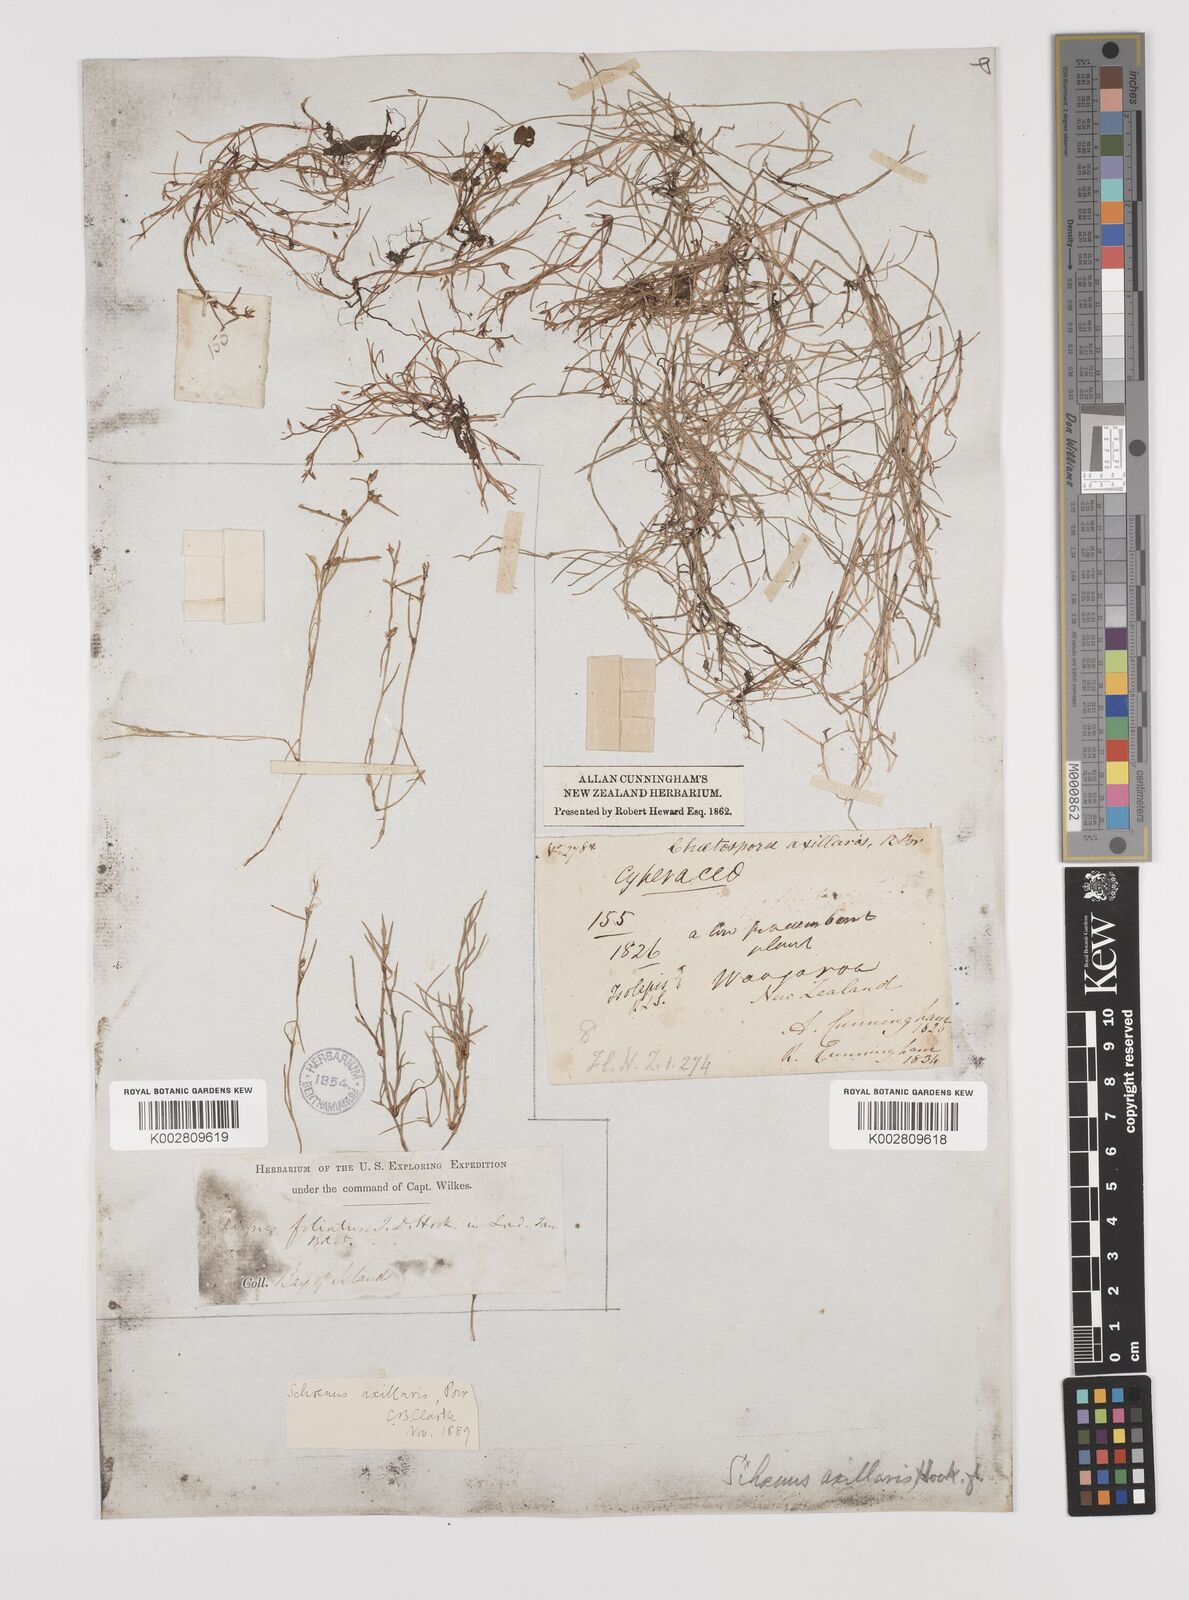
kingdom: Plantae
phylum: Tracheophyta
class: Liliopsida
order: Poales
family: Cyperaceae
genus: Schoenus
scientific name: Schoenus maschalinus
